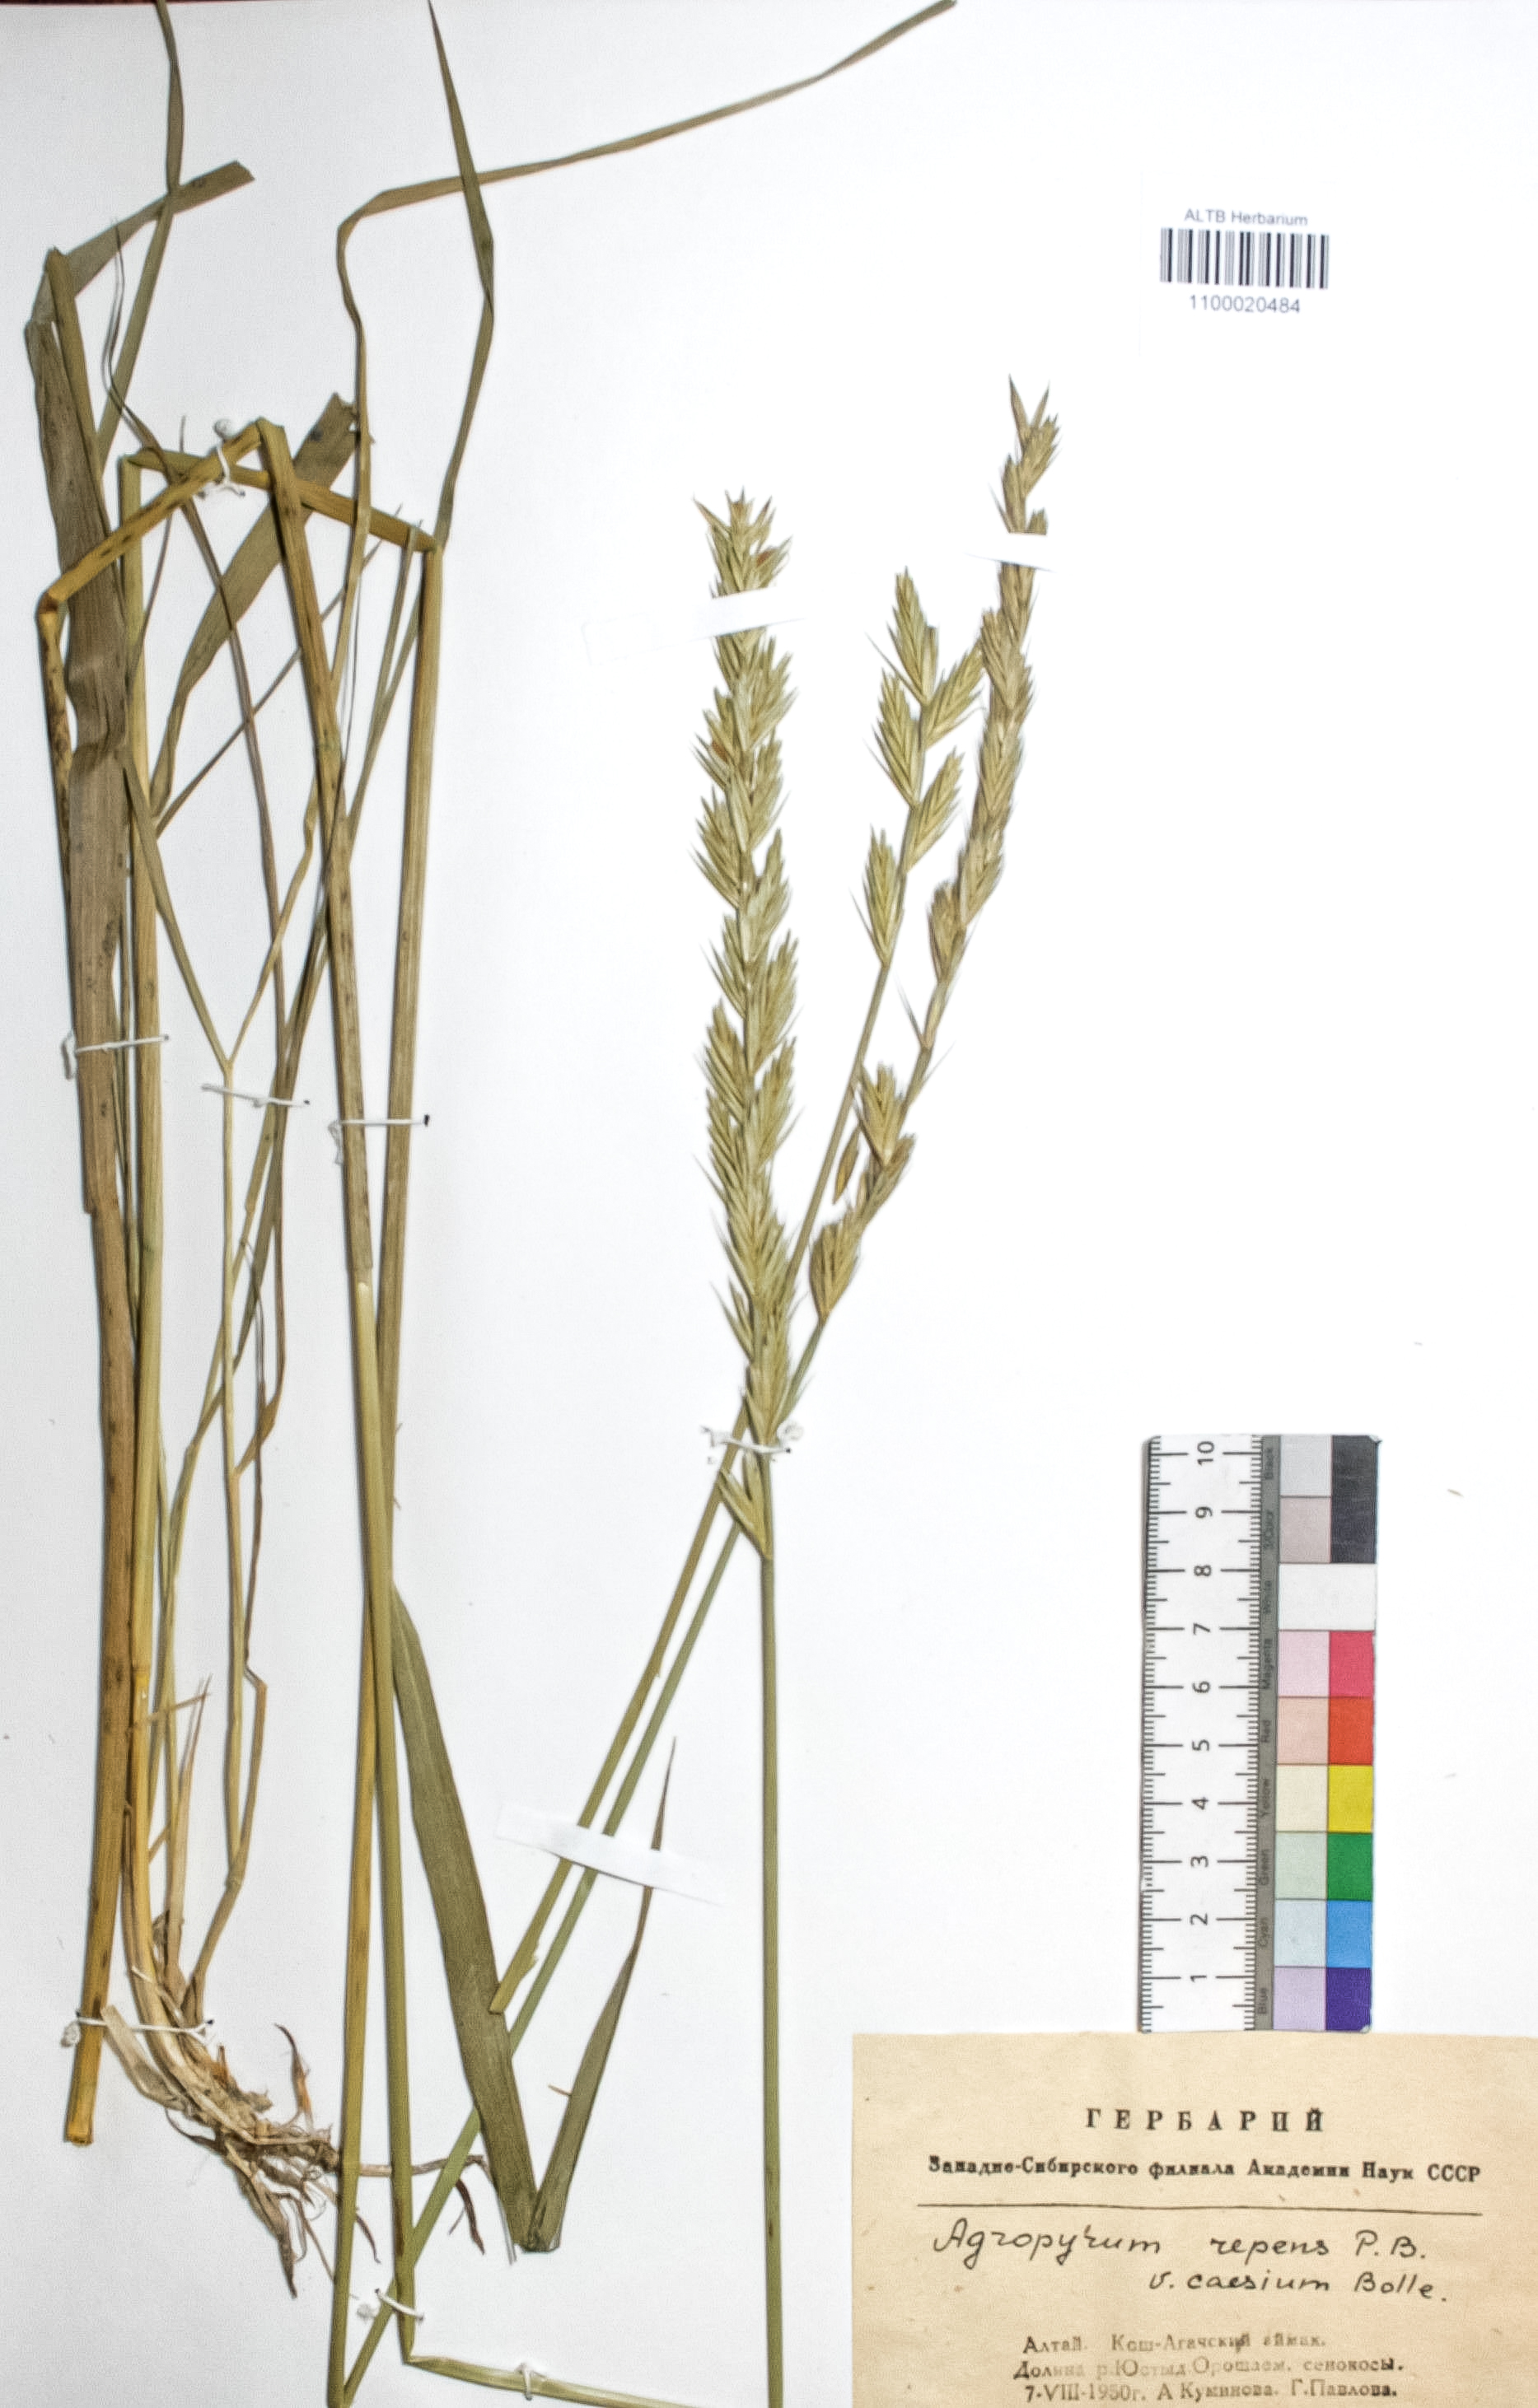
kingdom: Plantae
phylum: Tracheophyta
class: Liliopsida
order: Poales
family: Poaceae
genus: Elymus
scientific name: Elymus repens
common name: Quackgrass
